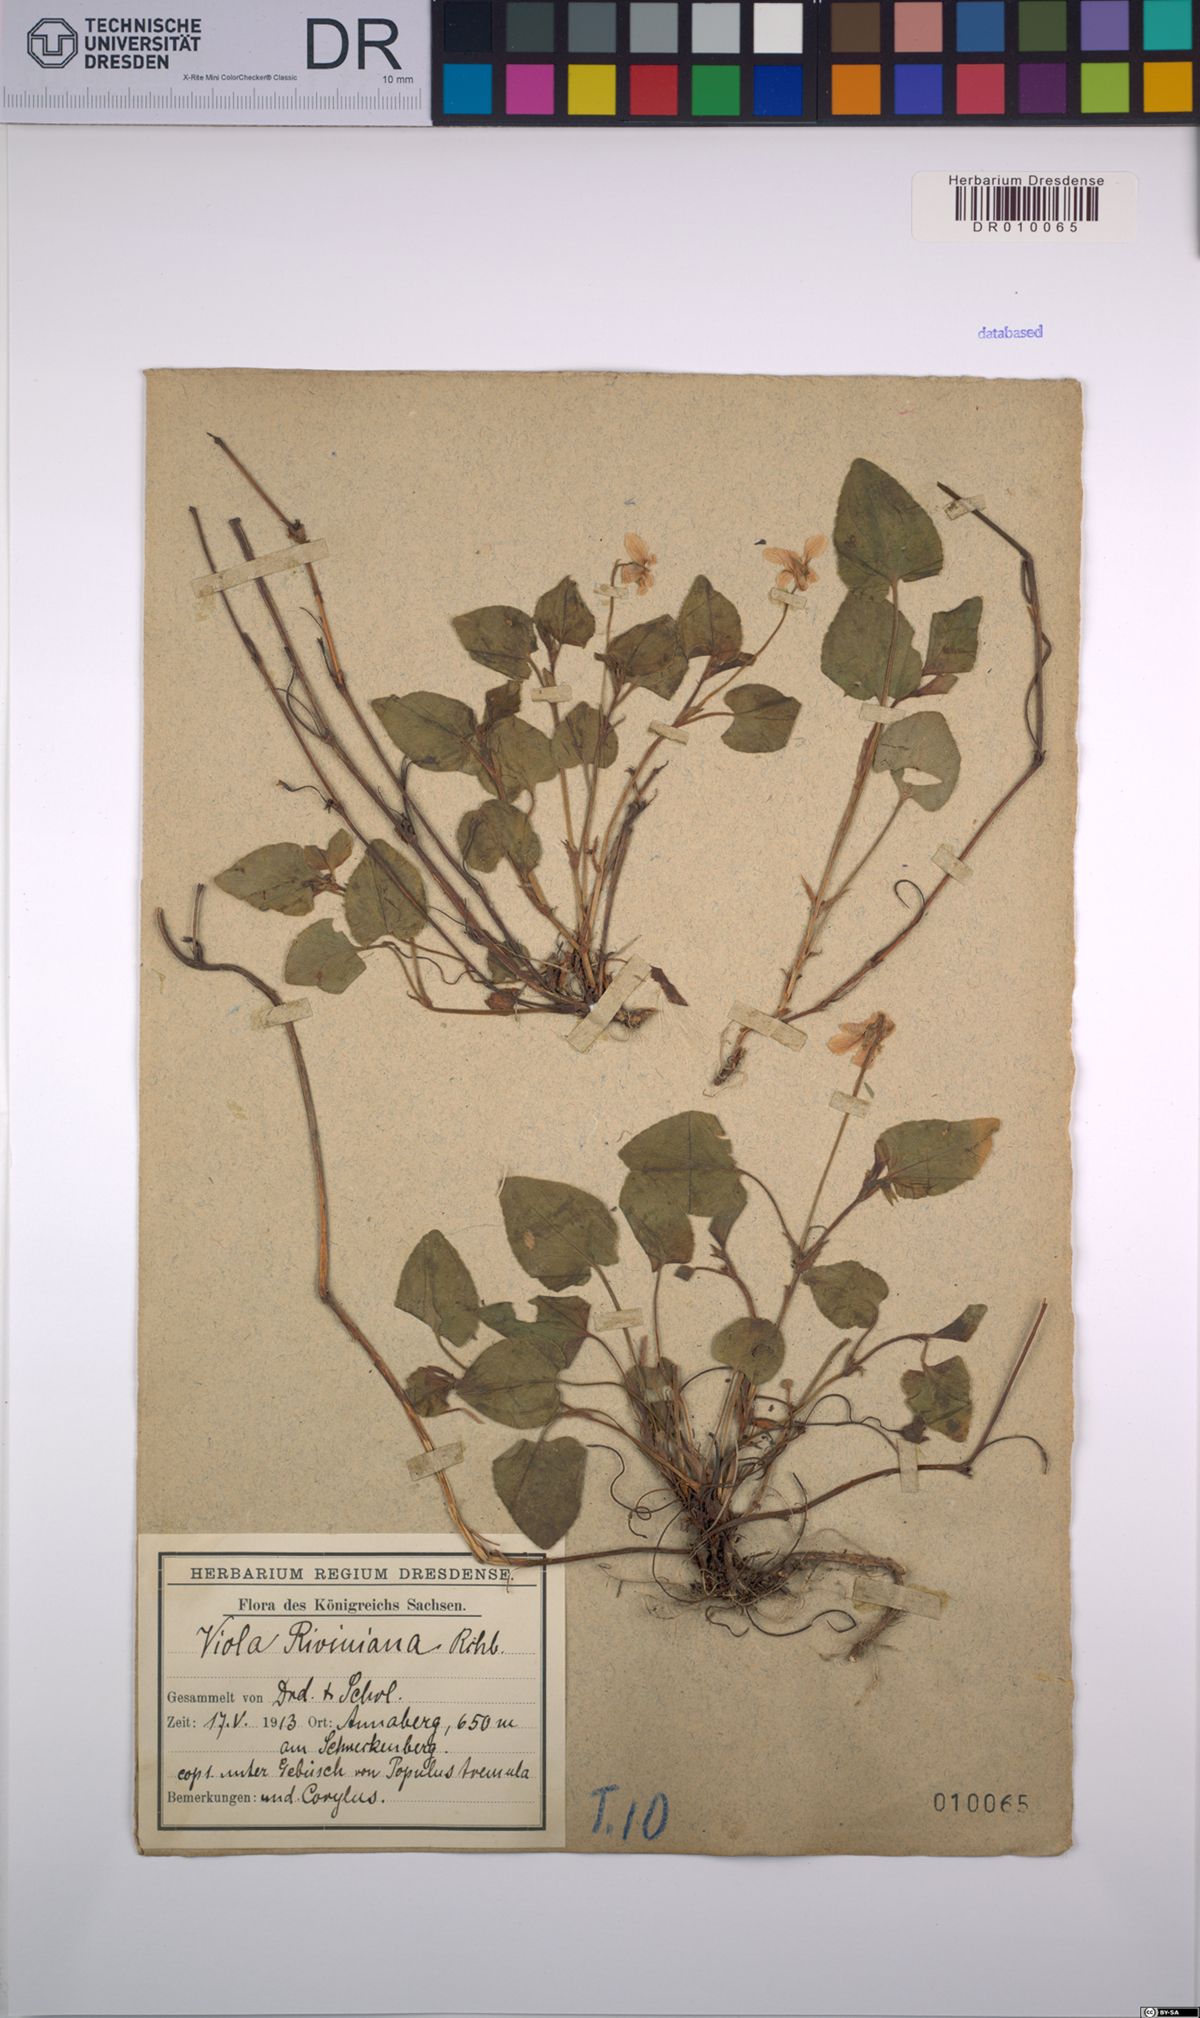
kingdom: Plantae
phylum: Tracheophyta
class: Magnoliopsida
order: Malpighiales
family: Violaceae
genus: Viola
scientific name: Viola riviniana
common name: Common dog-violet
